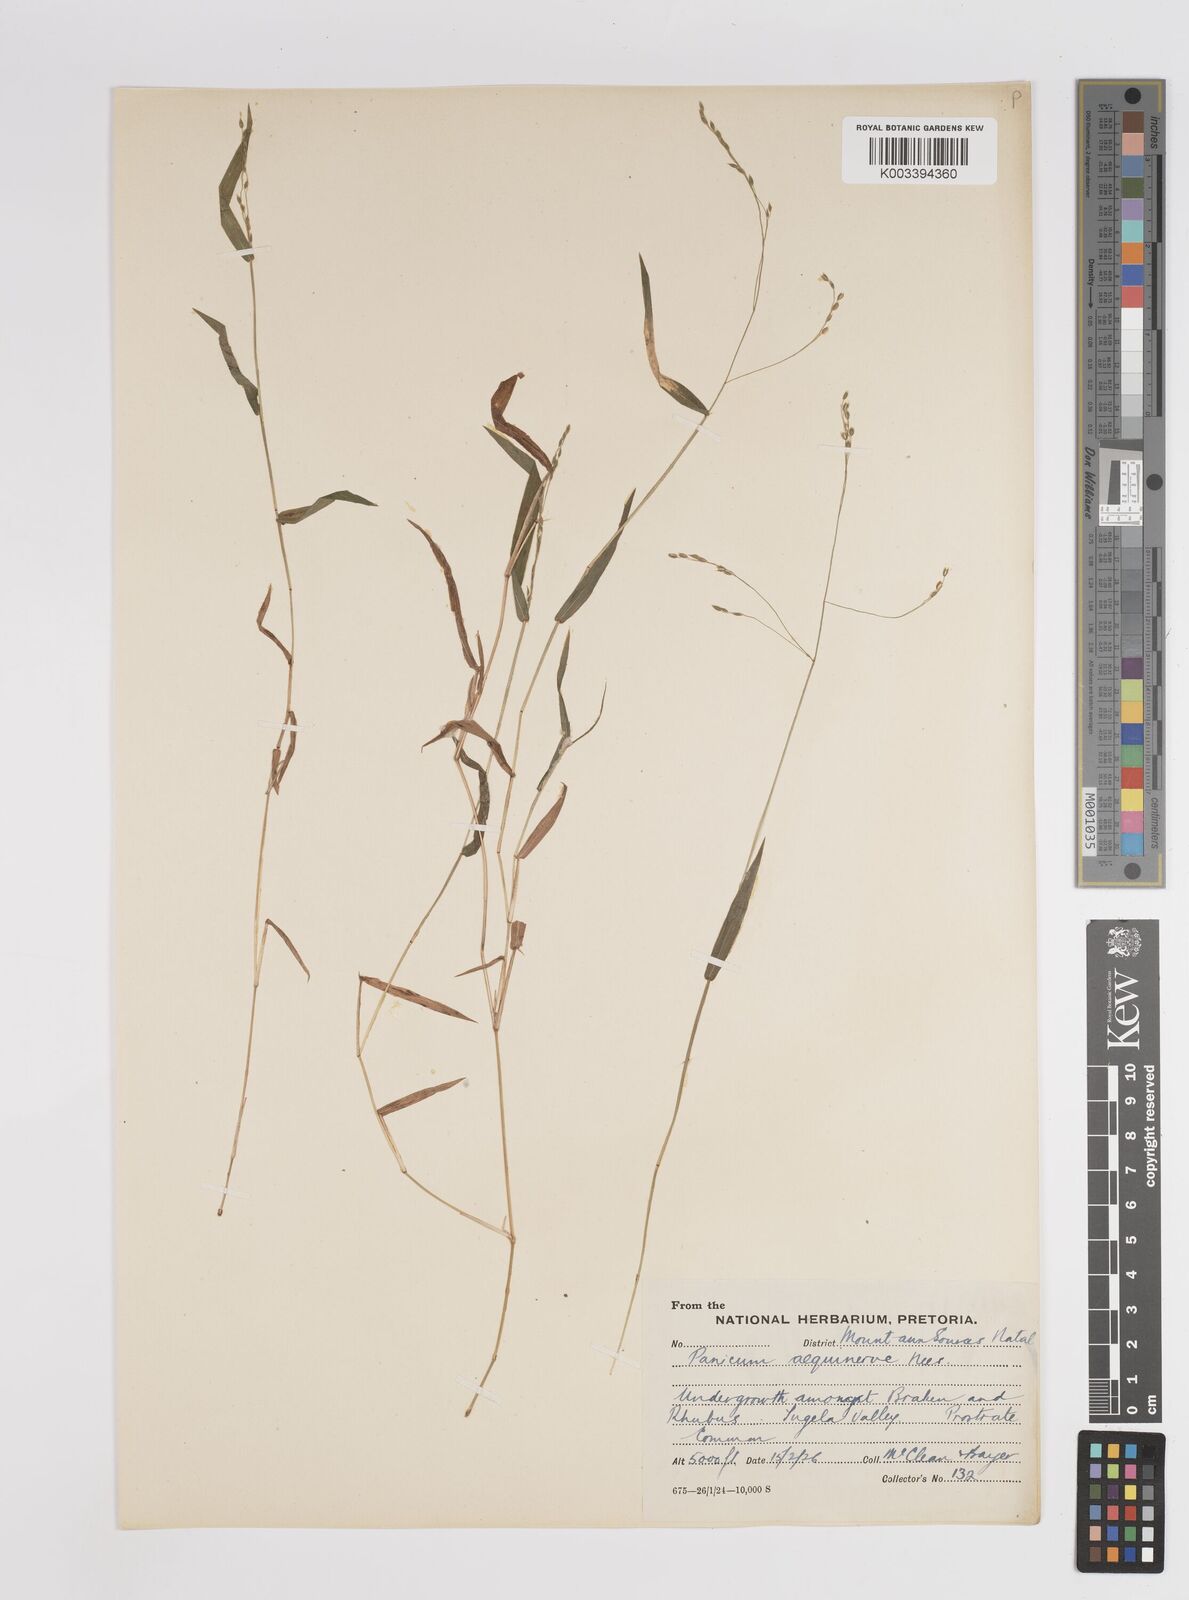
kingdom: Plantae
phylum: Tracheophyta
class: Liliopsida
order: Poales
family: Poaceae
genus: Panicum
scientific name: Panicum aequinerve
